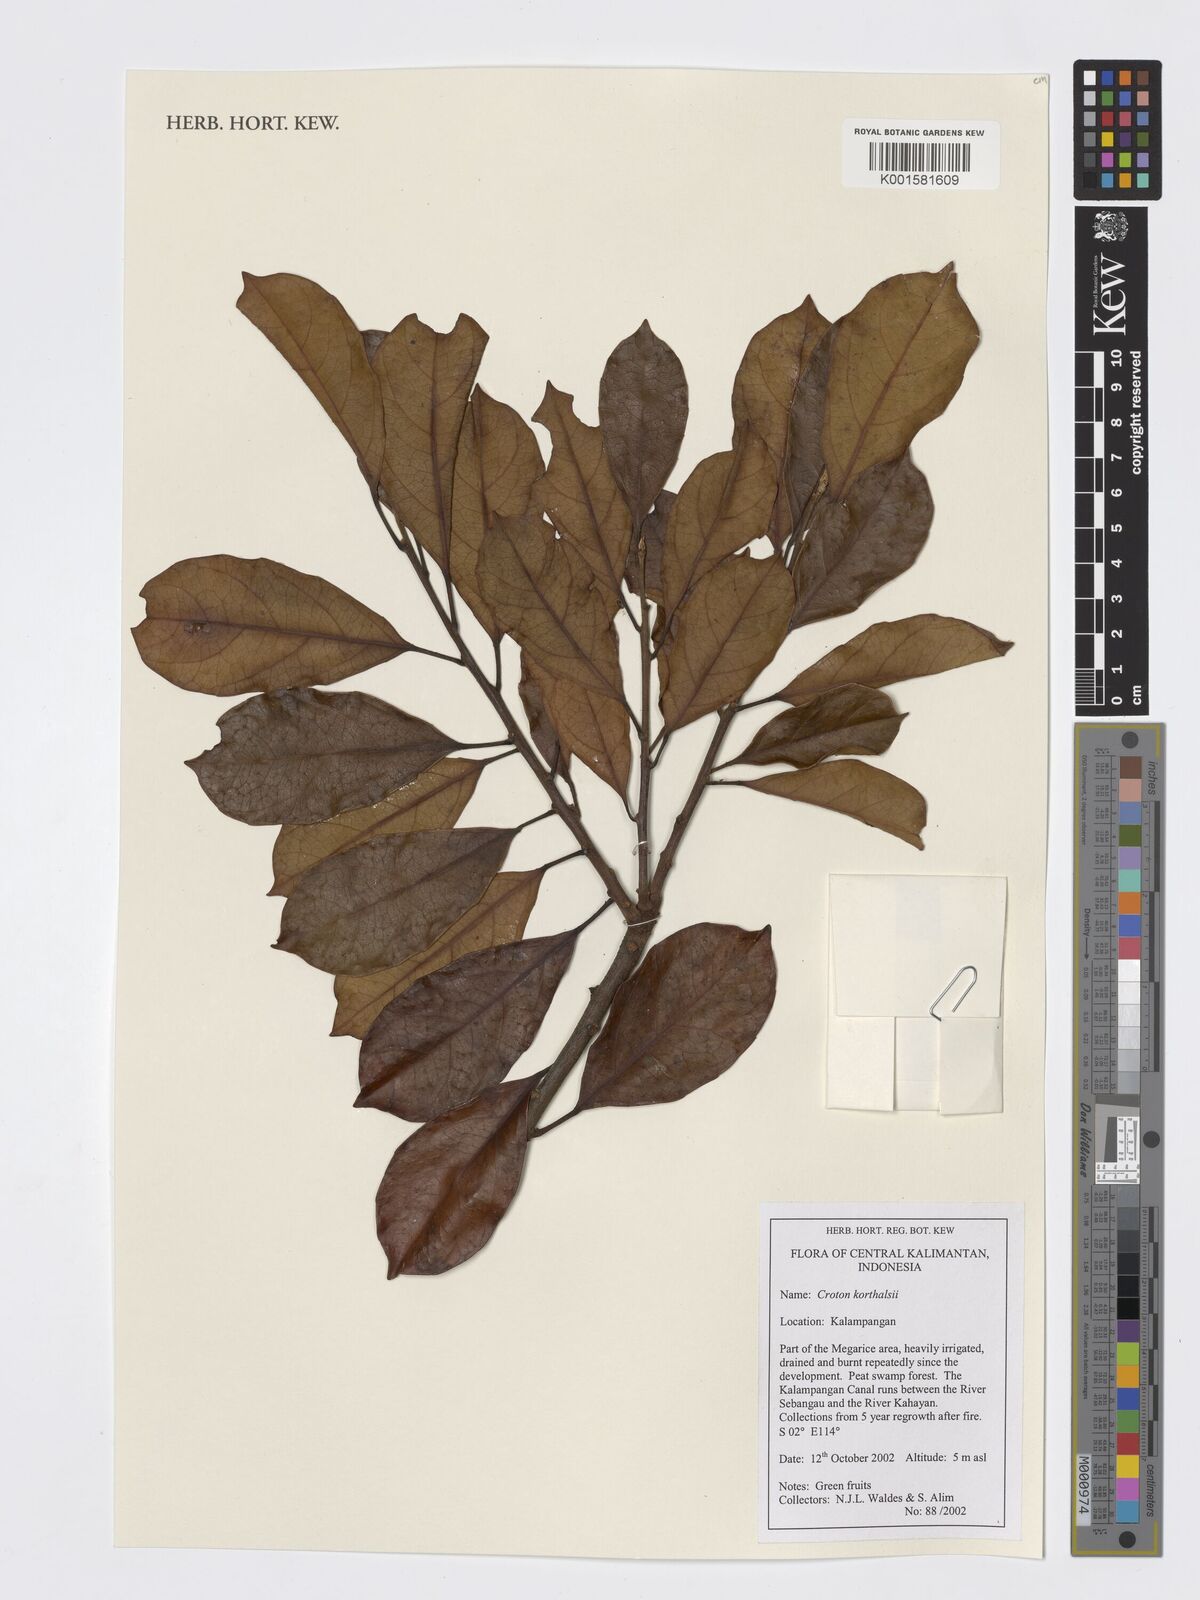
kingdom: Plantae
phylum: Tracheophyta
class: Magnoliopsida
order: Malpighiales
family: Euphorbiaceae
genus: Croton
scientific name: Croton oblongus
